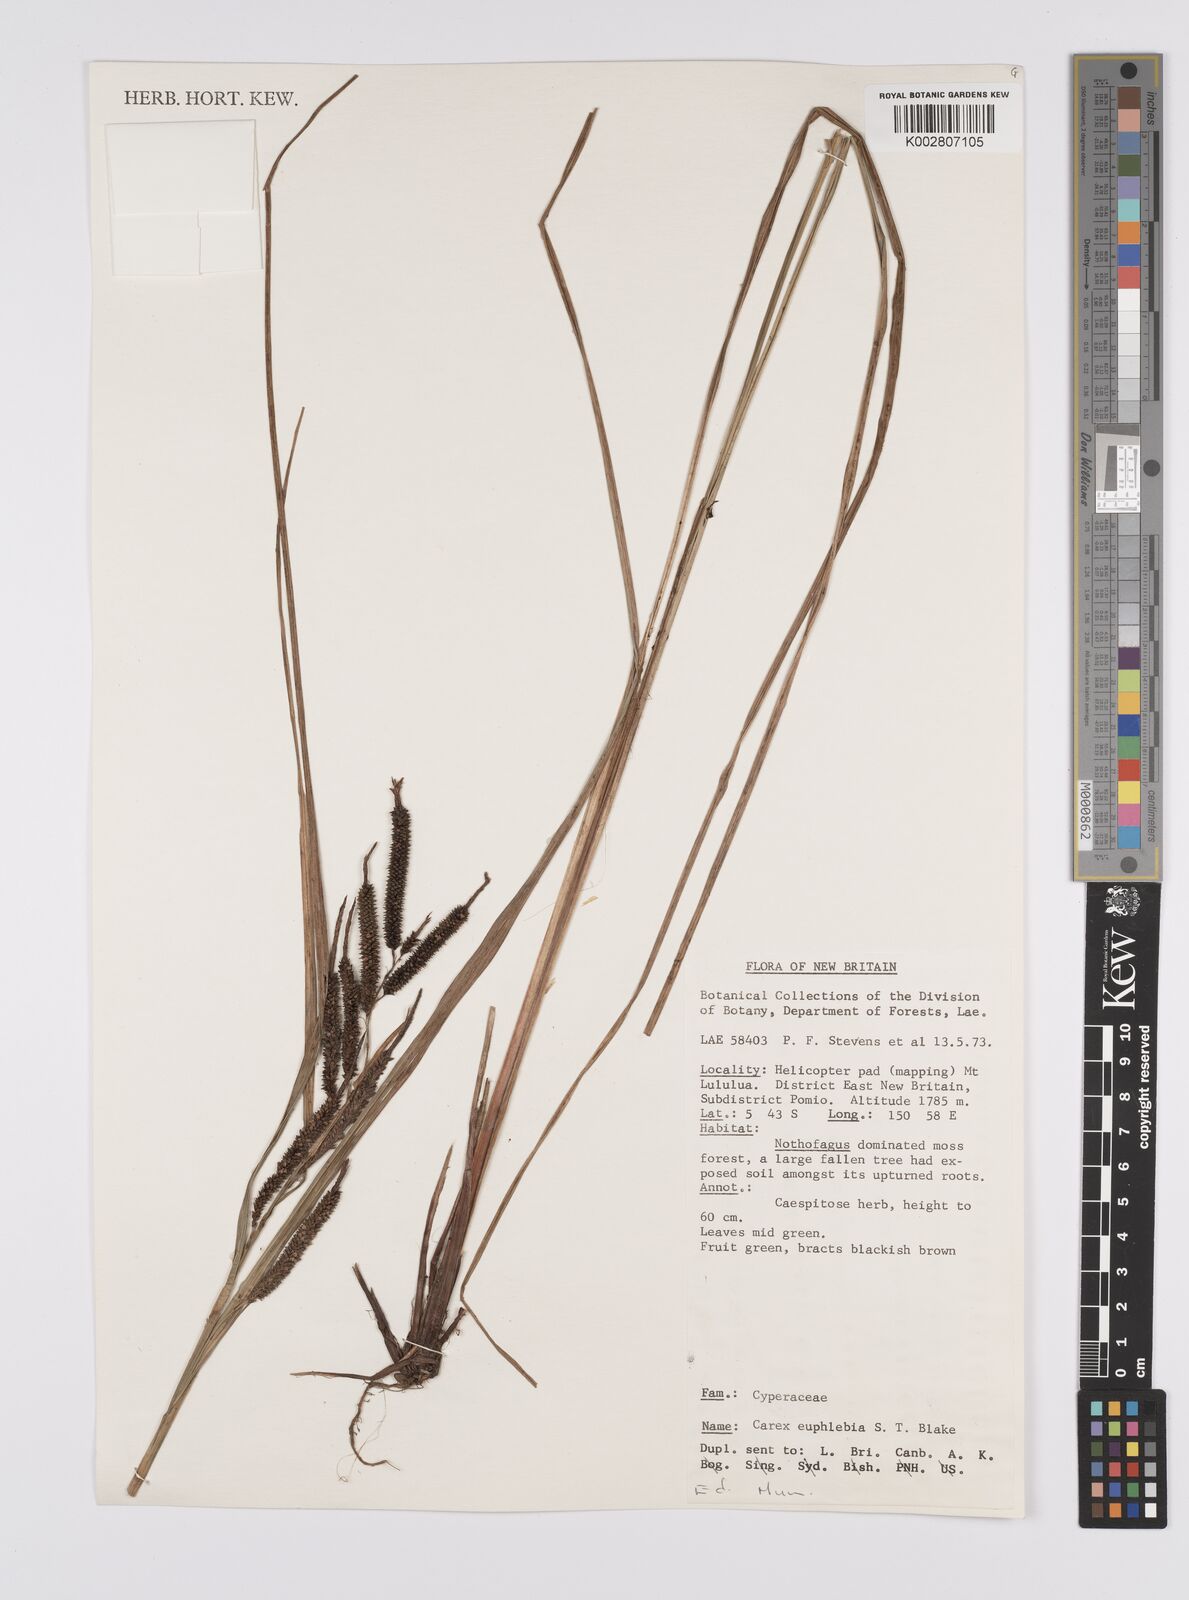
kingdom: Plantae
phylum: Tracheophyta
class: Liliopsida
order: Poales
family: Cyperaceae
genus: Carex
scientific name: Carex graeffeana
